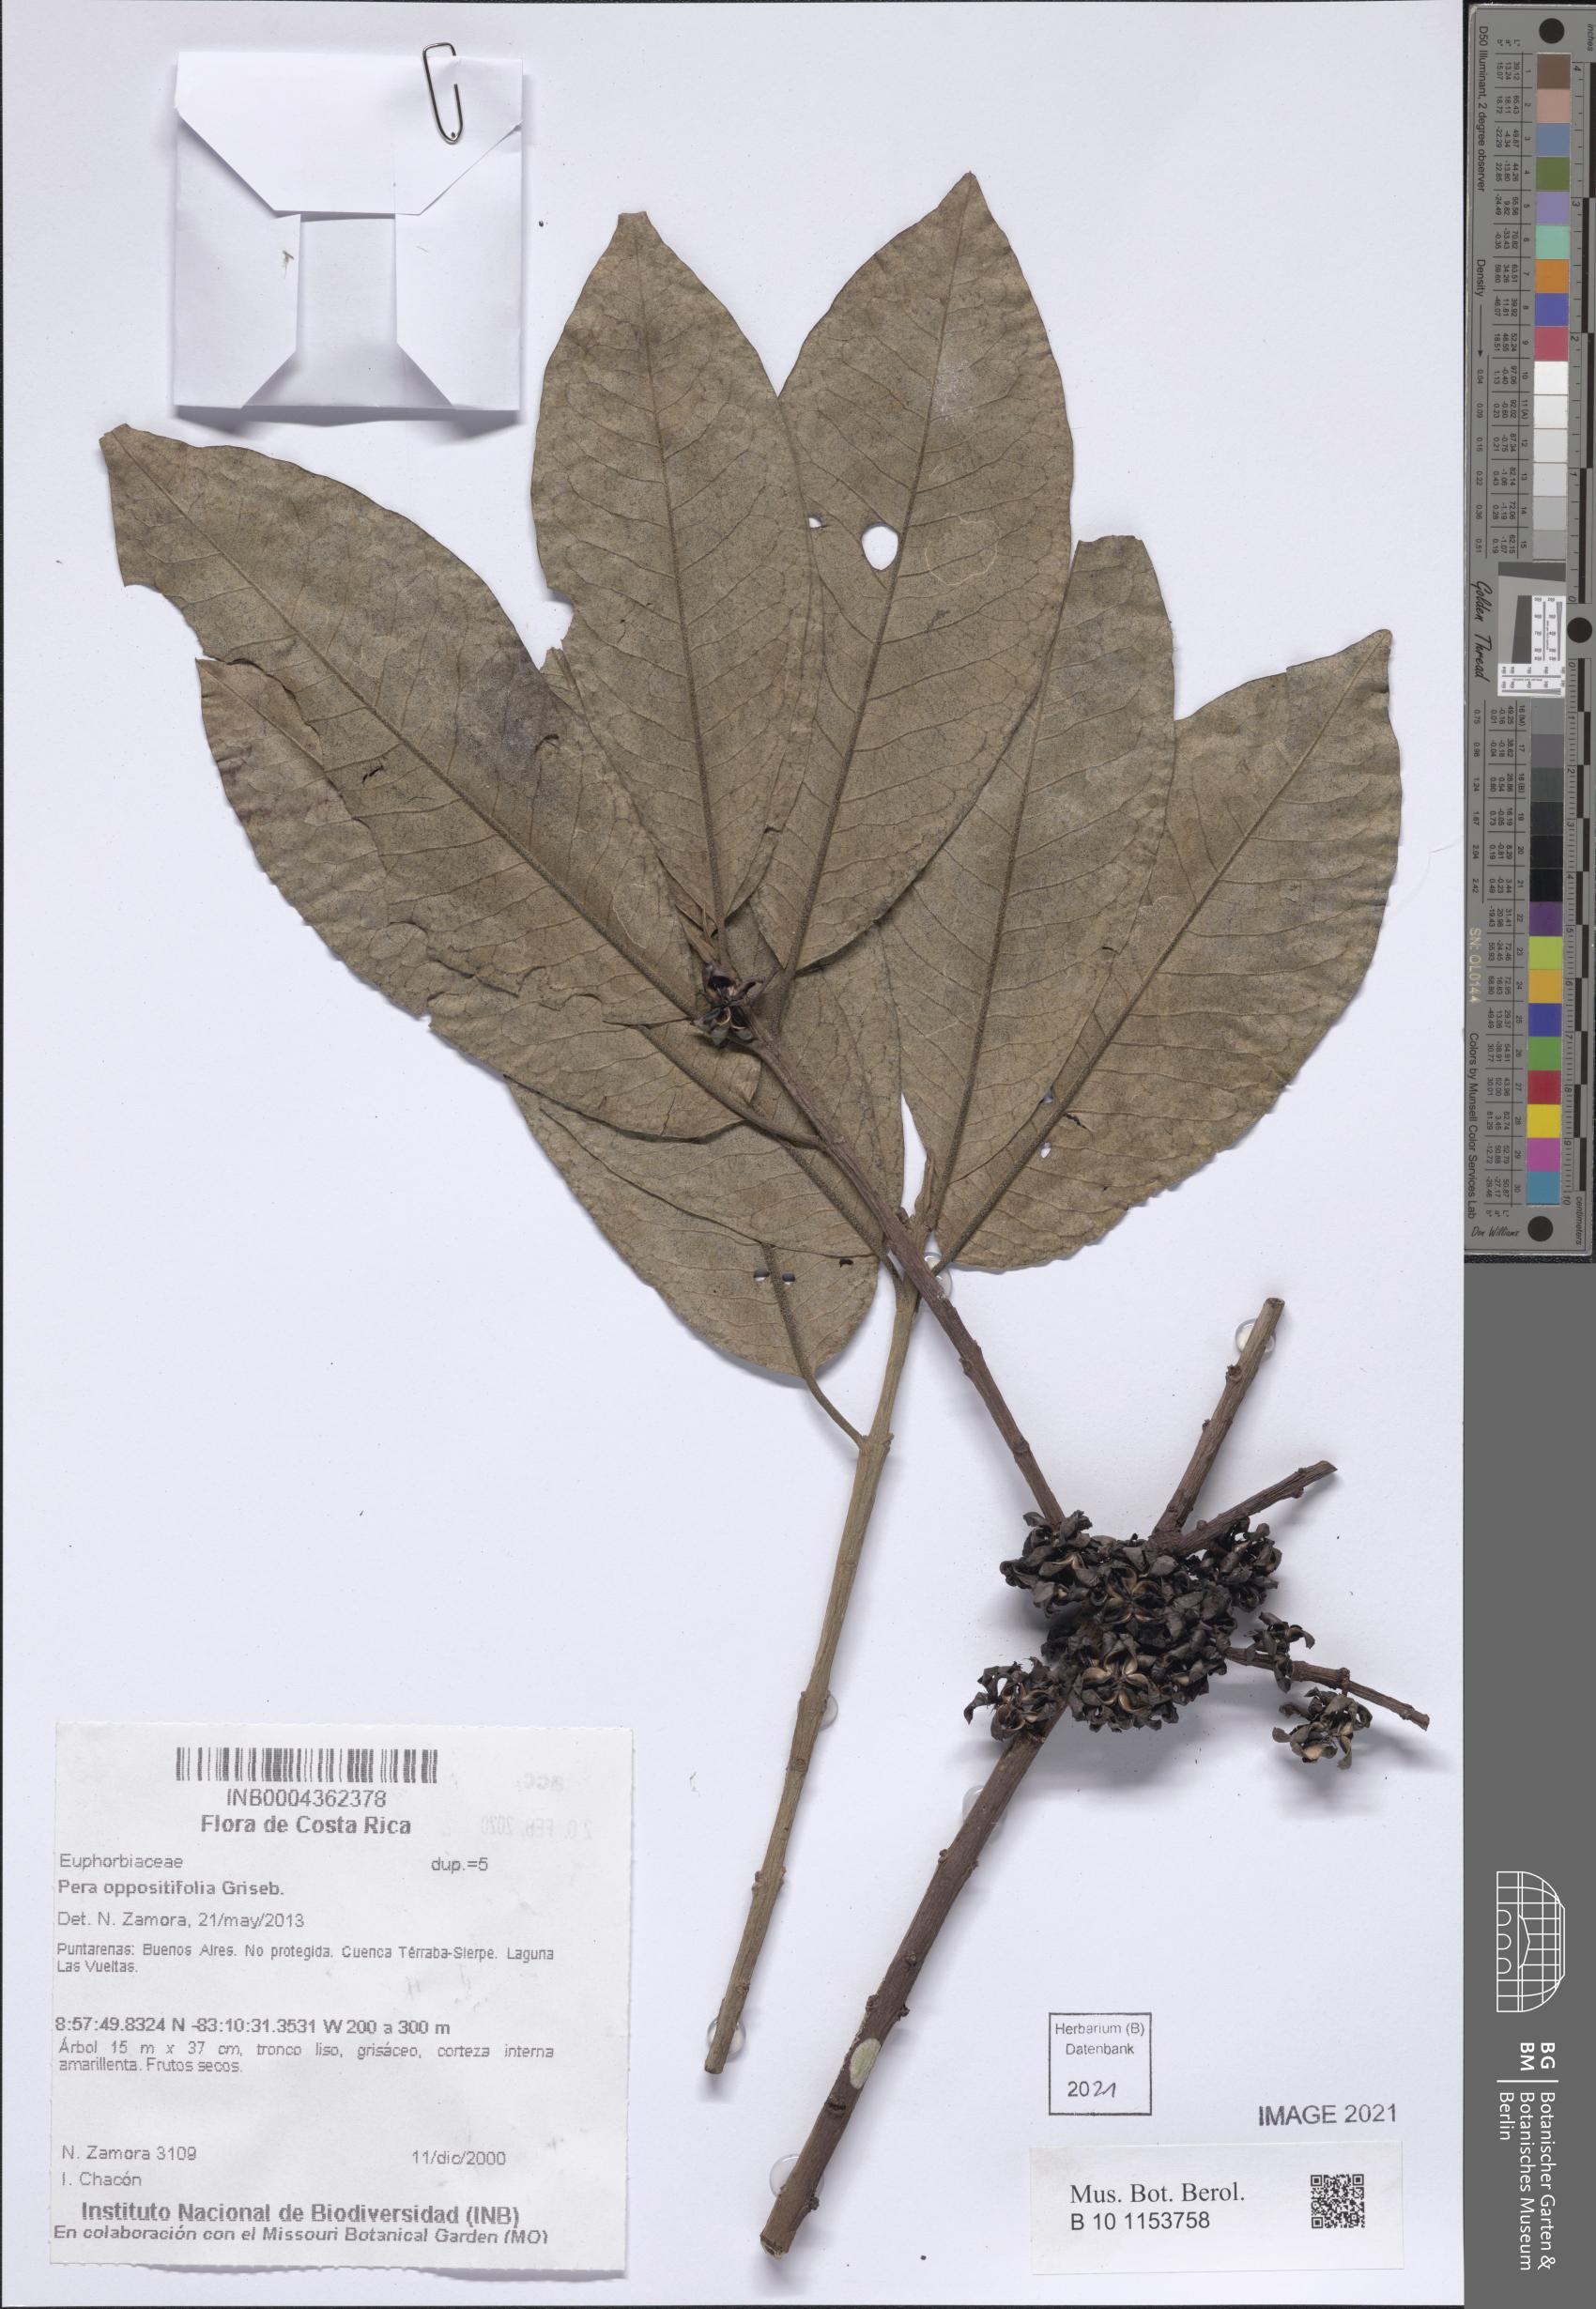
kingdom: Plantae
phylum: Tracheophyta
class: Magnoliopsida
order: Malpighiales
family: Peraceae
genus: Pera
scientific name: Pera oppositifolia
